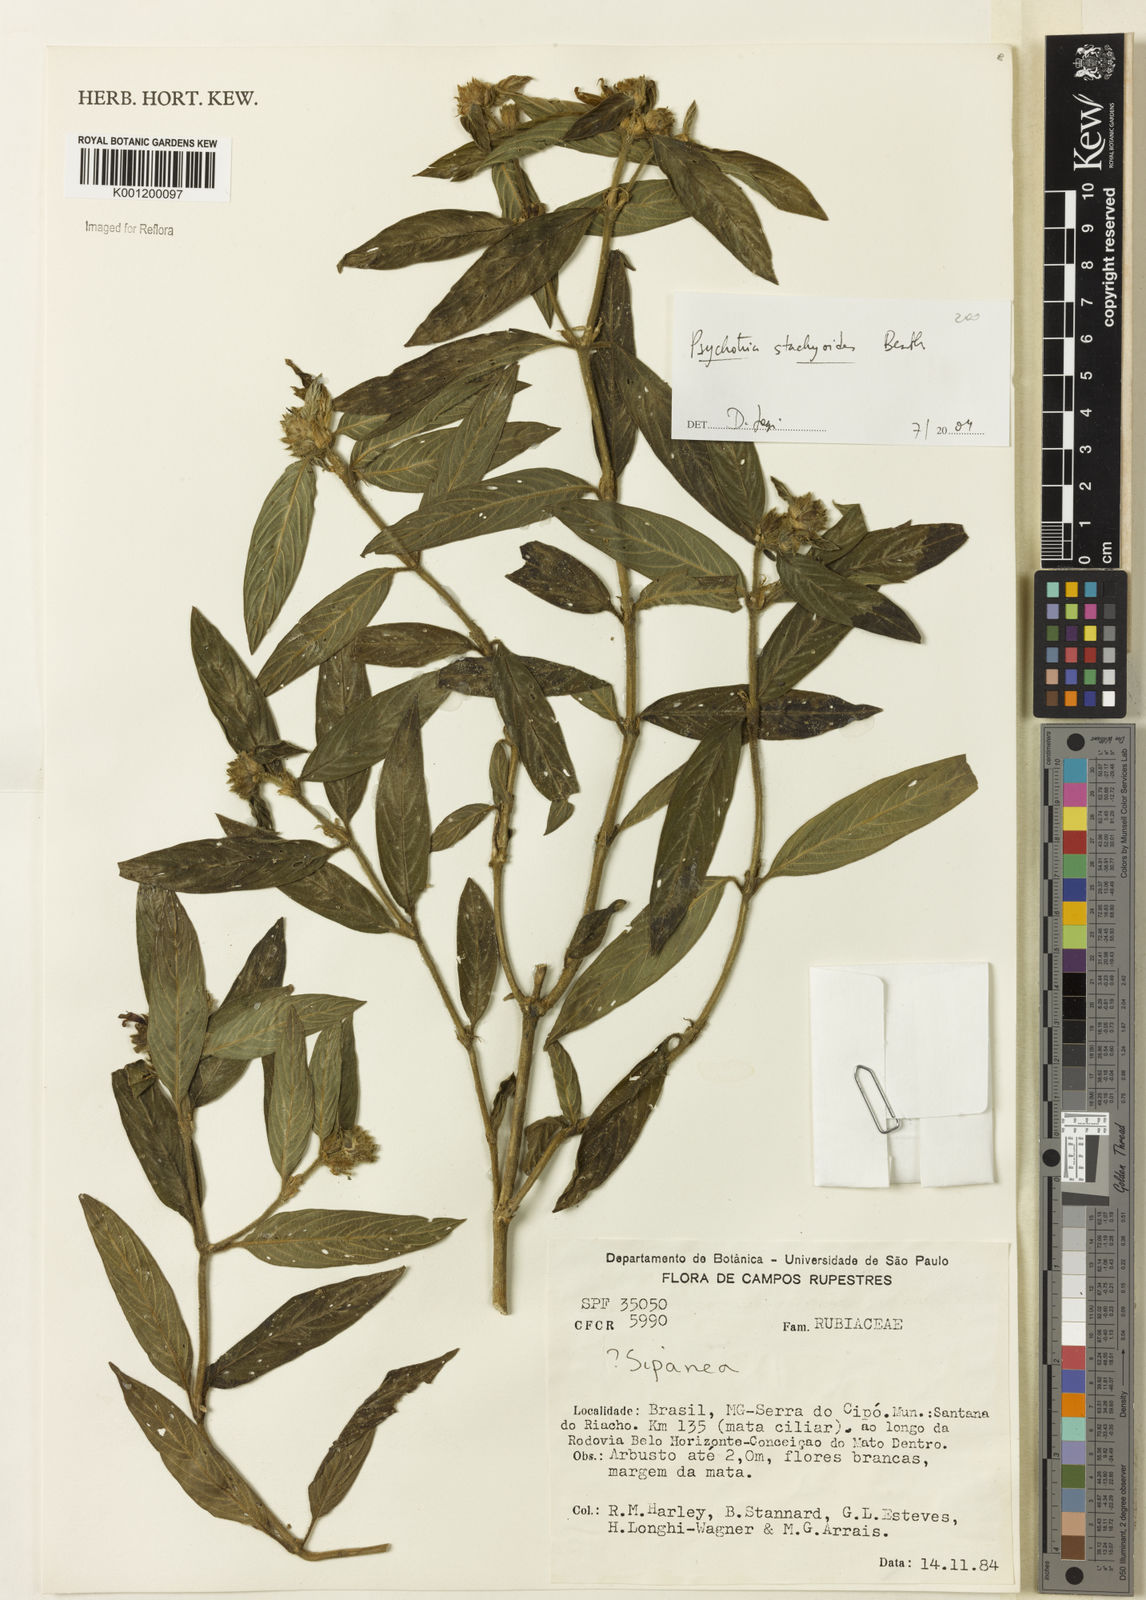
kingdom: Plantae
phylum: Tracheophyta
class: Magnoliopsida
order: Gentianales
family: Rubiaceae
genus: Psychotria
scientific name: Psychotria stachyoides
